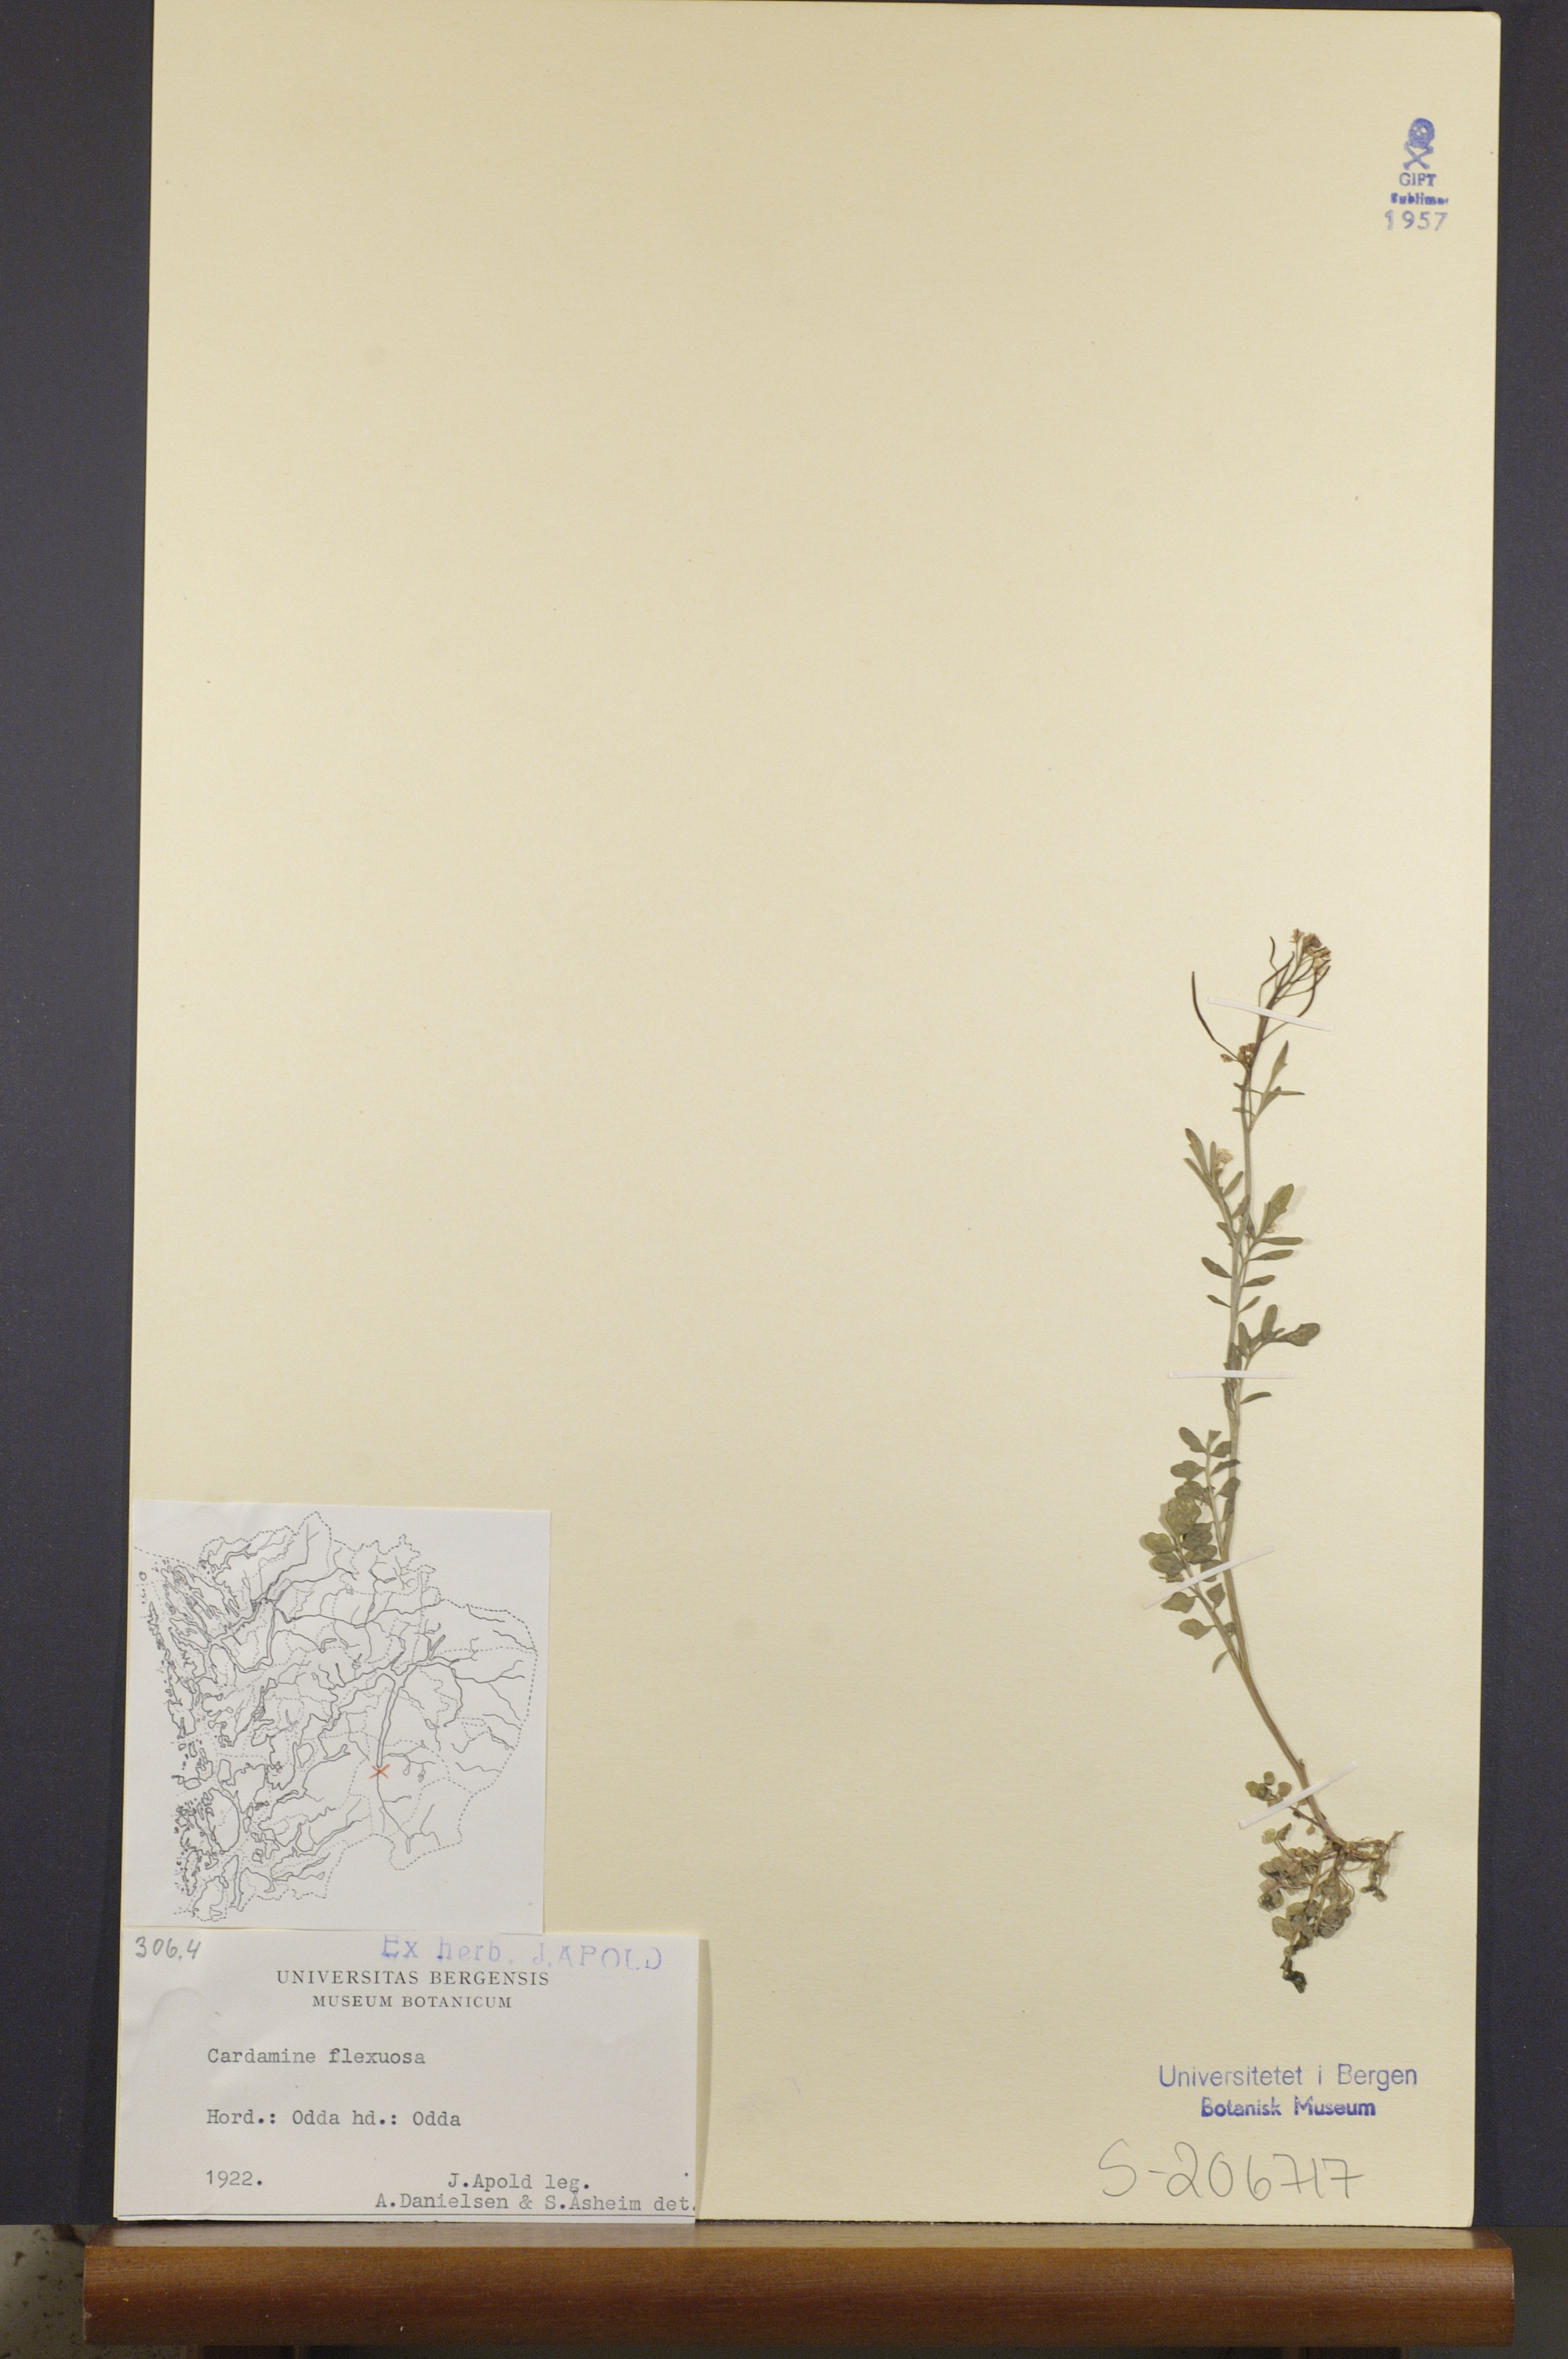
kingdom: Plantae
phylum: Tracheophyta
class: Magnoliopsida
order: Brassicales
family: Brassicaceae
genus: Cardamine
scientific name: Cardamine flexuosa
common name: Woodland bittercress
